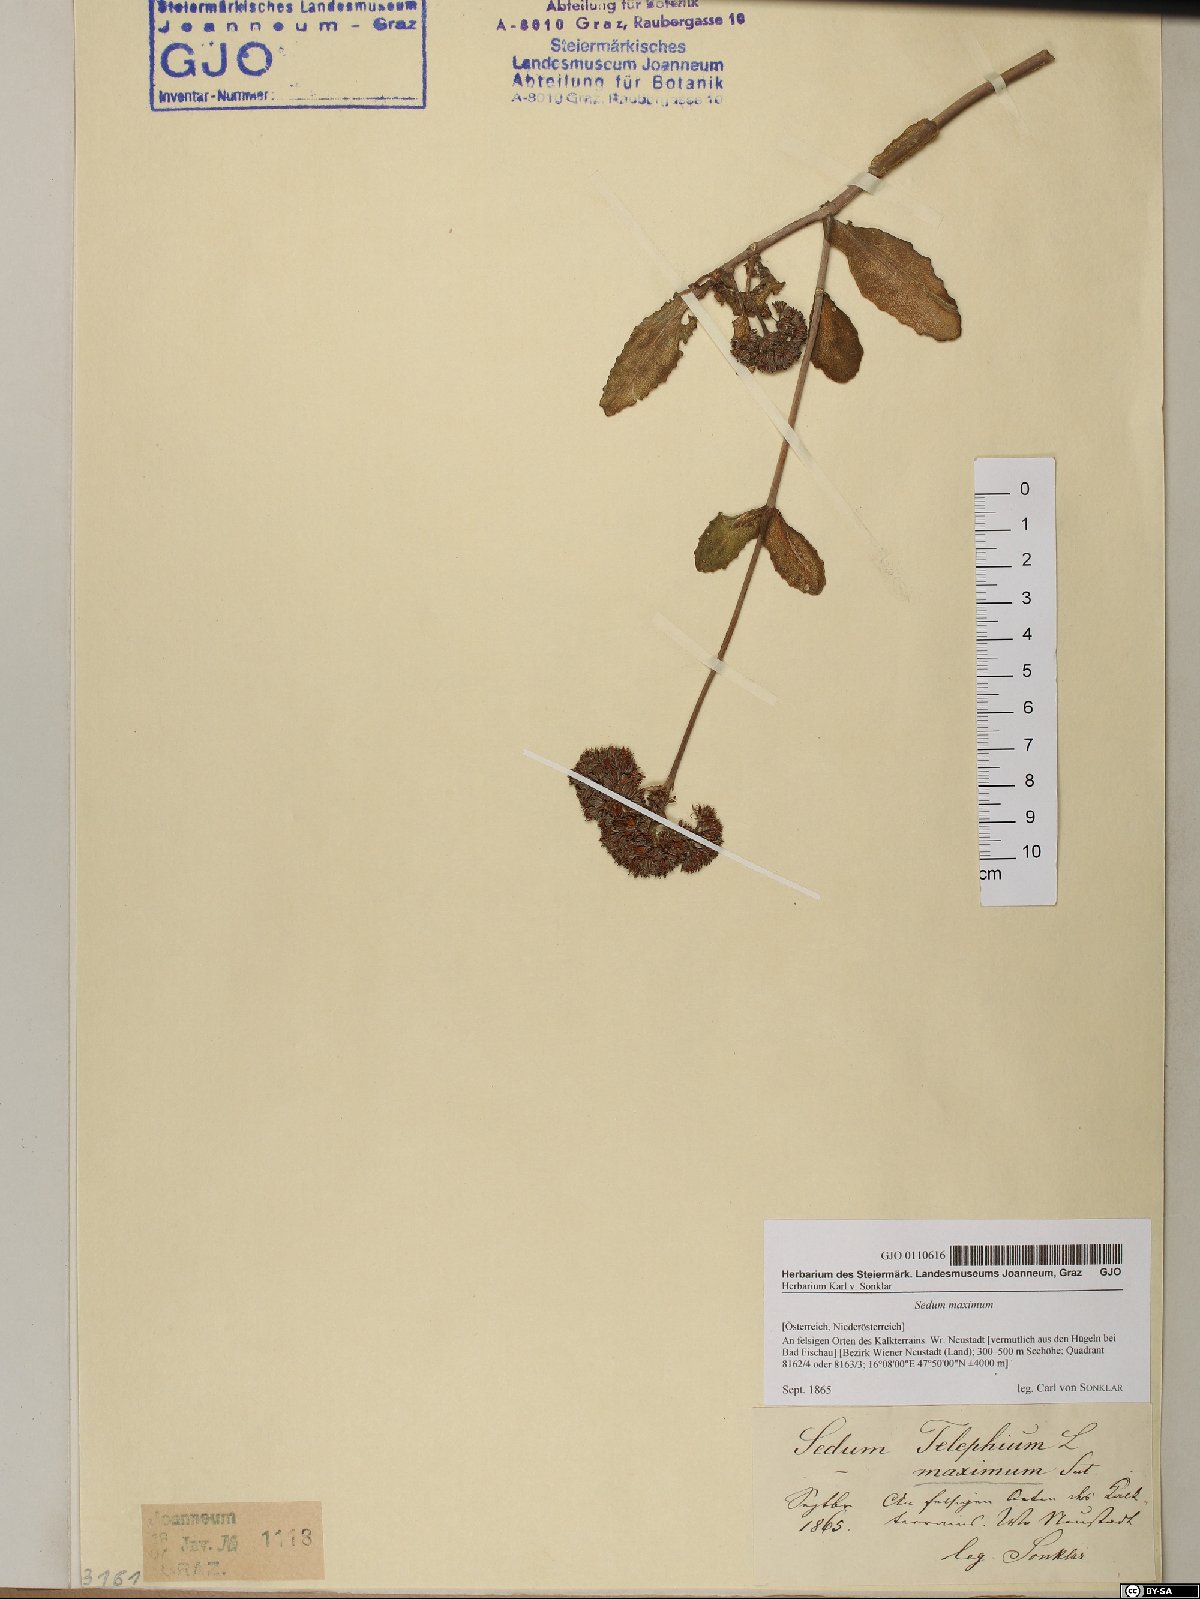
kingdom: Plantae
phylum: Tracheophyta
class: Magnoliopsida
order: Saxifragales
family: Crassulaceae
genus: Hylotelephium
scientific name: Hylotelephium maximum
